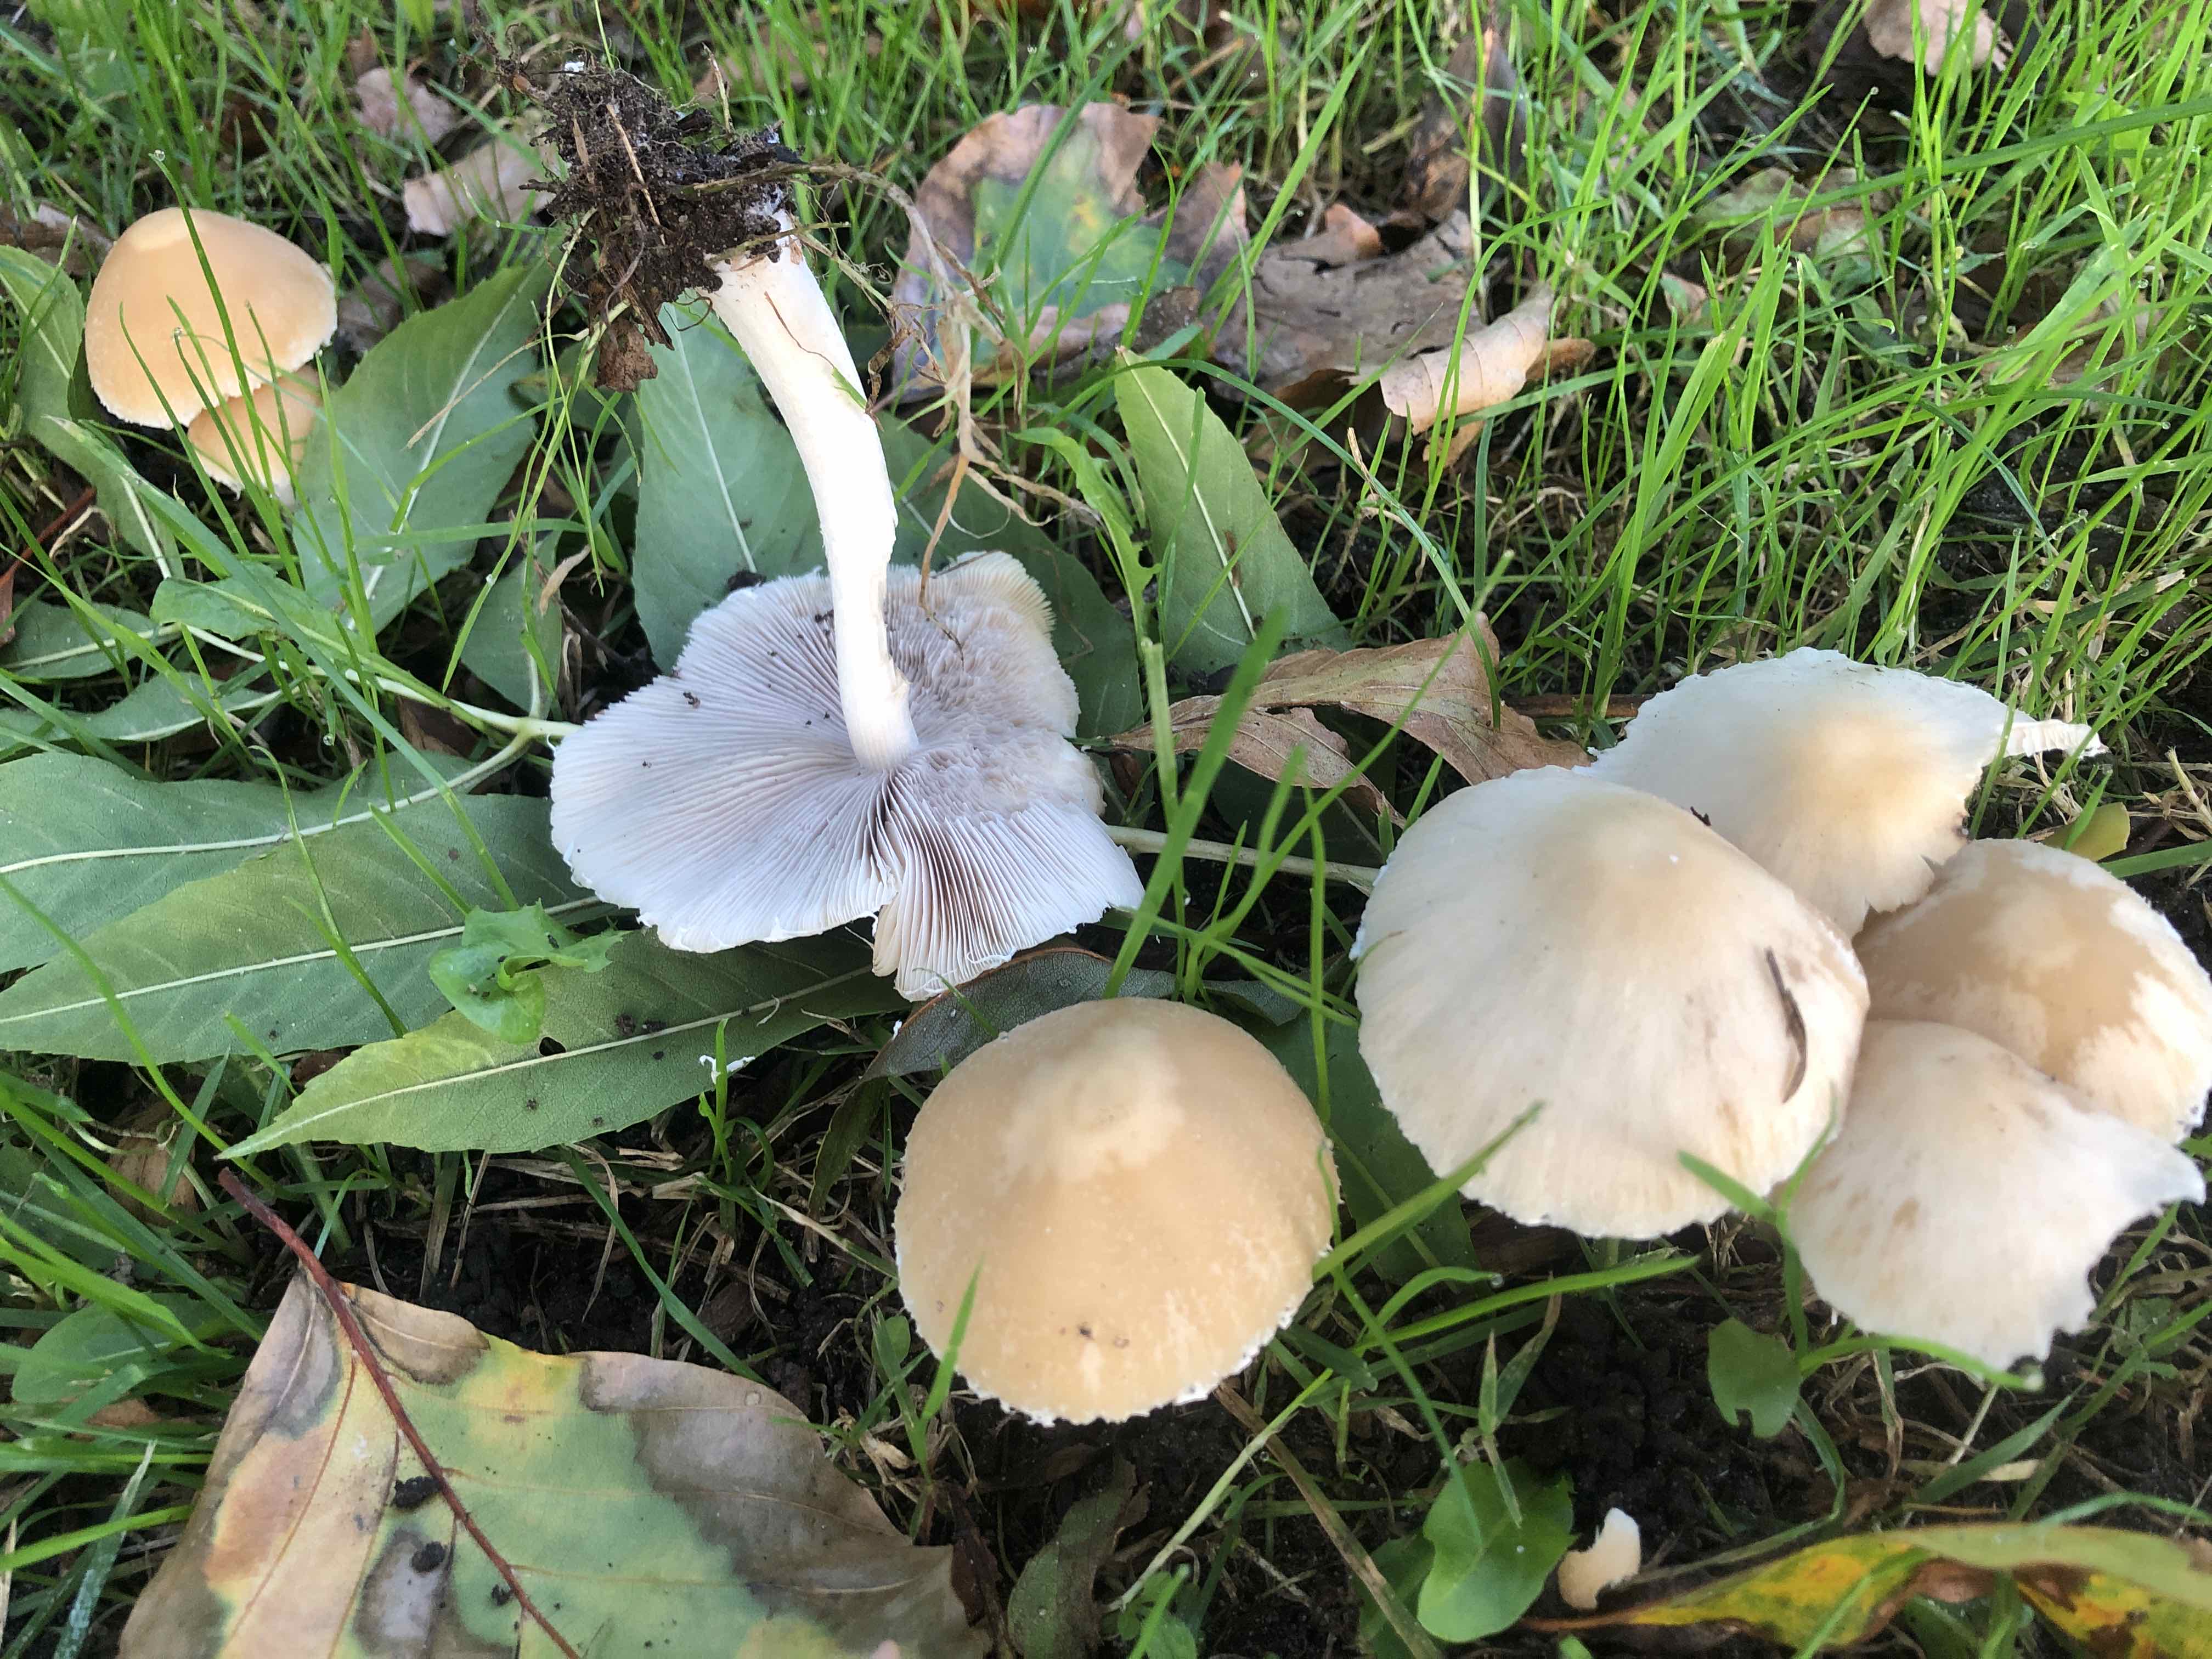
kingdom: Fungi
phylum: Basidiomycota
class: Agaricomycetes
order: Agaricales
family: Psathyrellaceae
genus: Candolleomyces
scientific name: Candolleomyces candolleanus
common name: Candolles mørkhat
